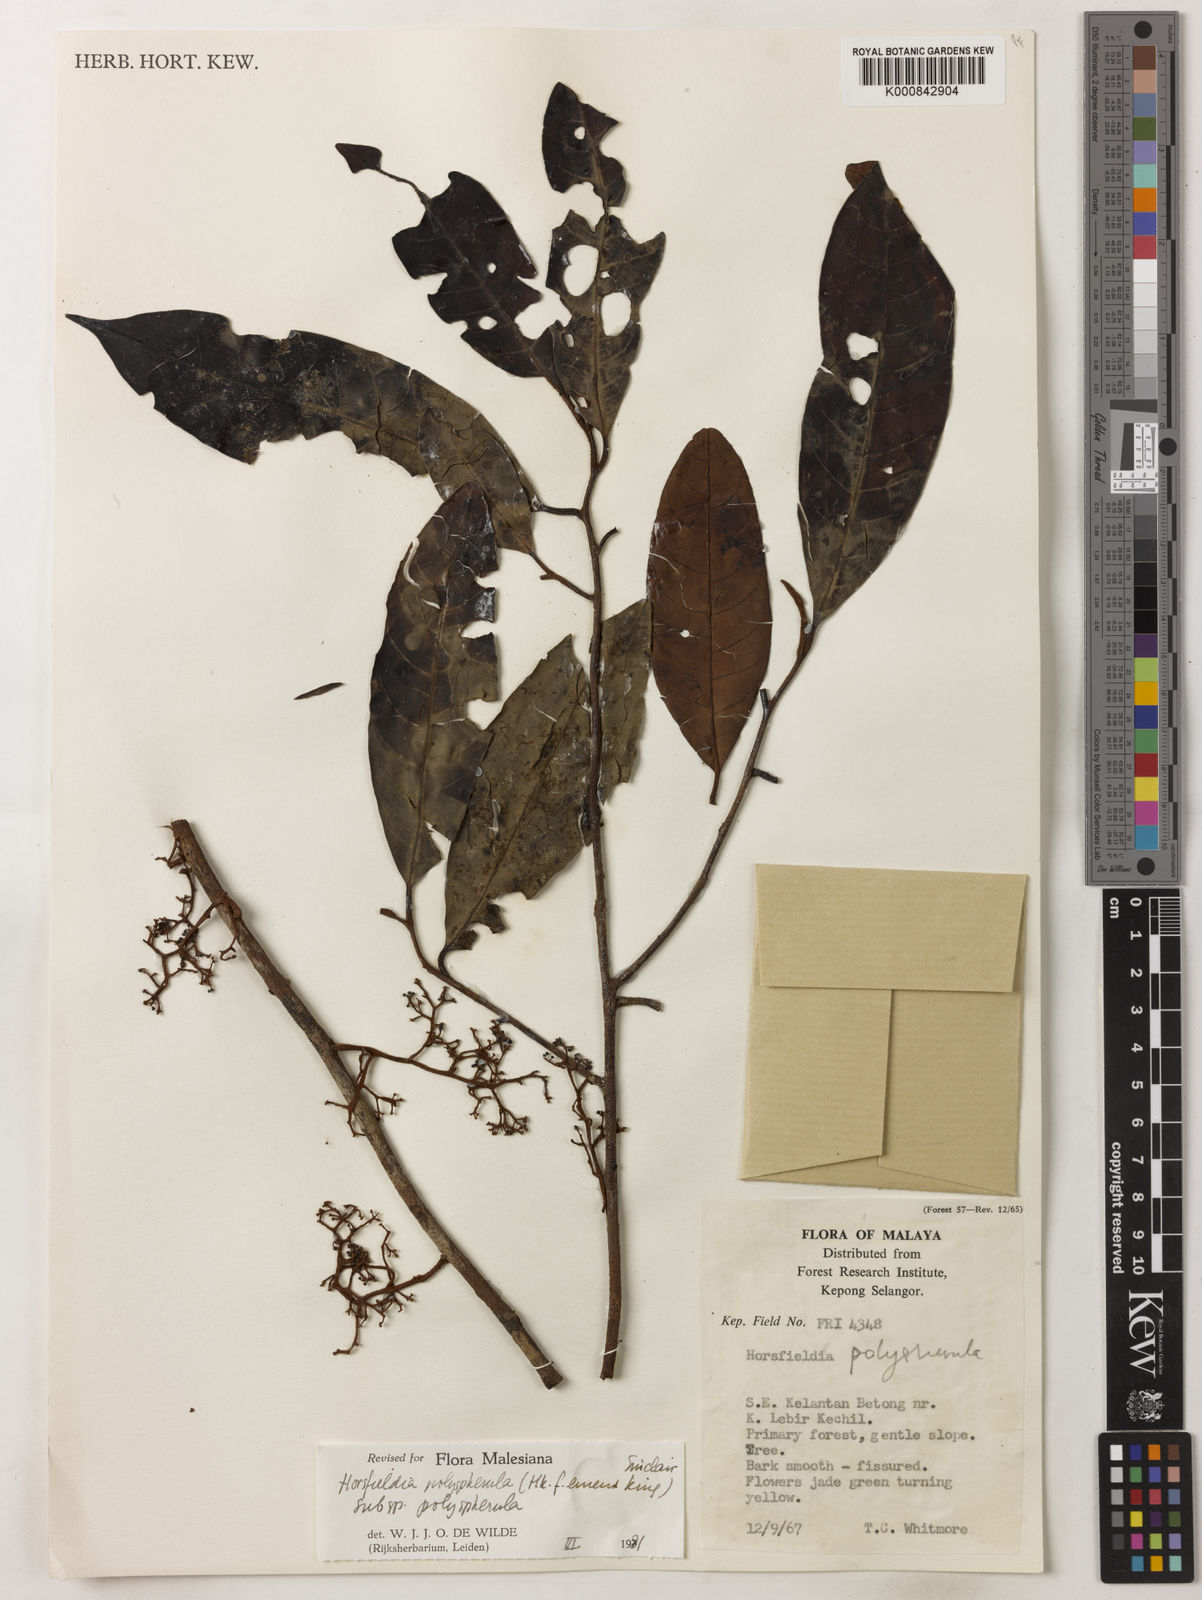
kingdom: Plantae
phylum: Tracheophyta
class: Magnoliopsida
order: Magnoliales
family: Myristicaceae
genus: Horsfieldia
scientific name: Horsfieldia
